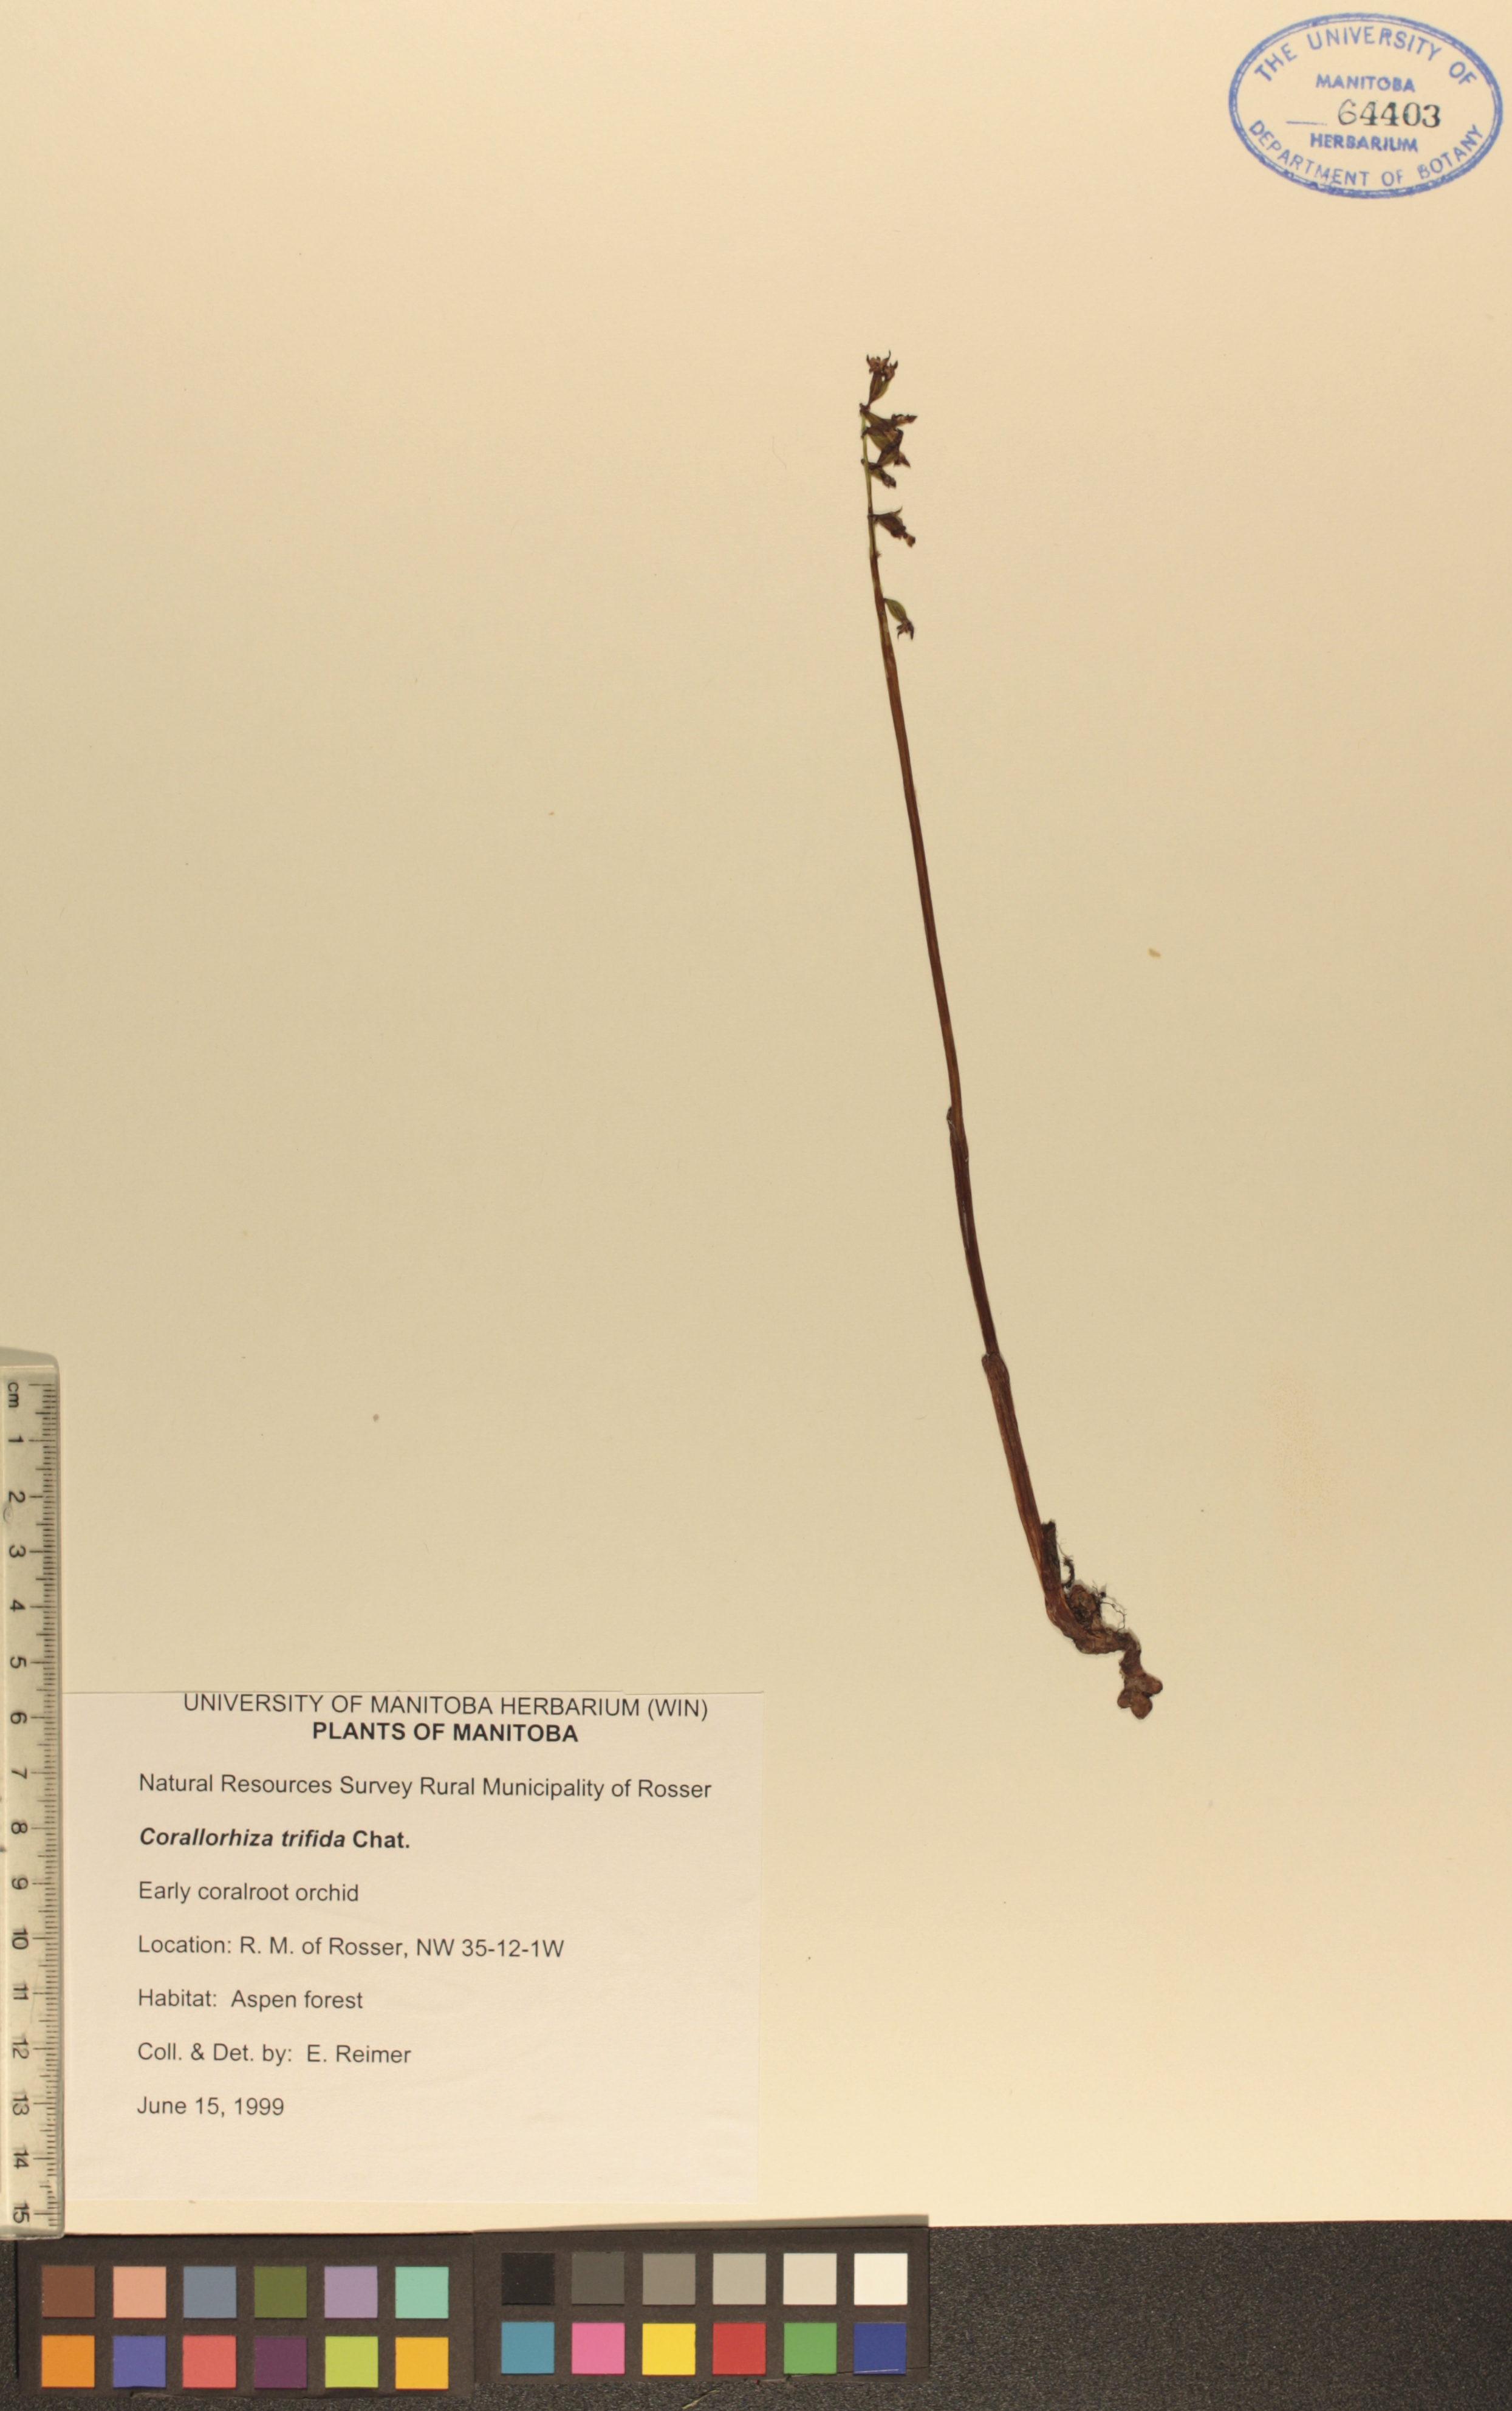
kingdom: Plantae
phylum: Tracheophyta
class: Liliopsida
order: Asparagales
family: Orchidaceae
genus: Corallorhiza
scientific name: Corallorhiza trifida
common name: Yellow coralroot
